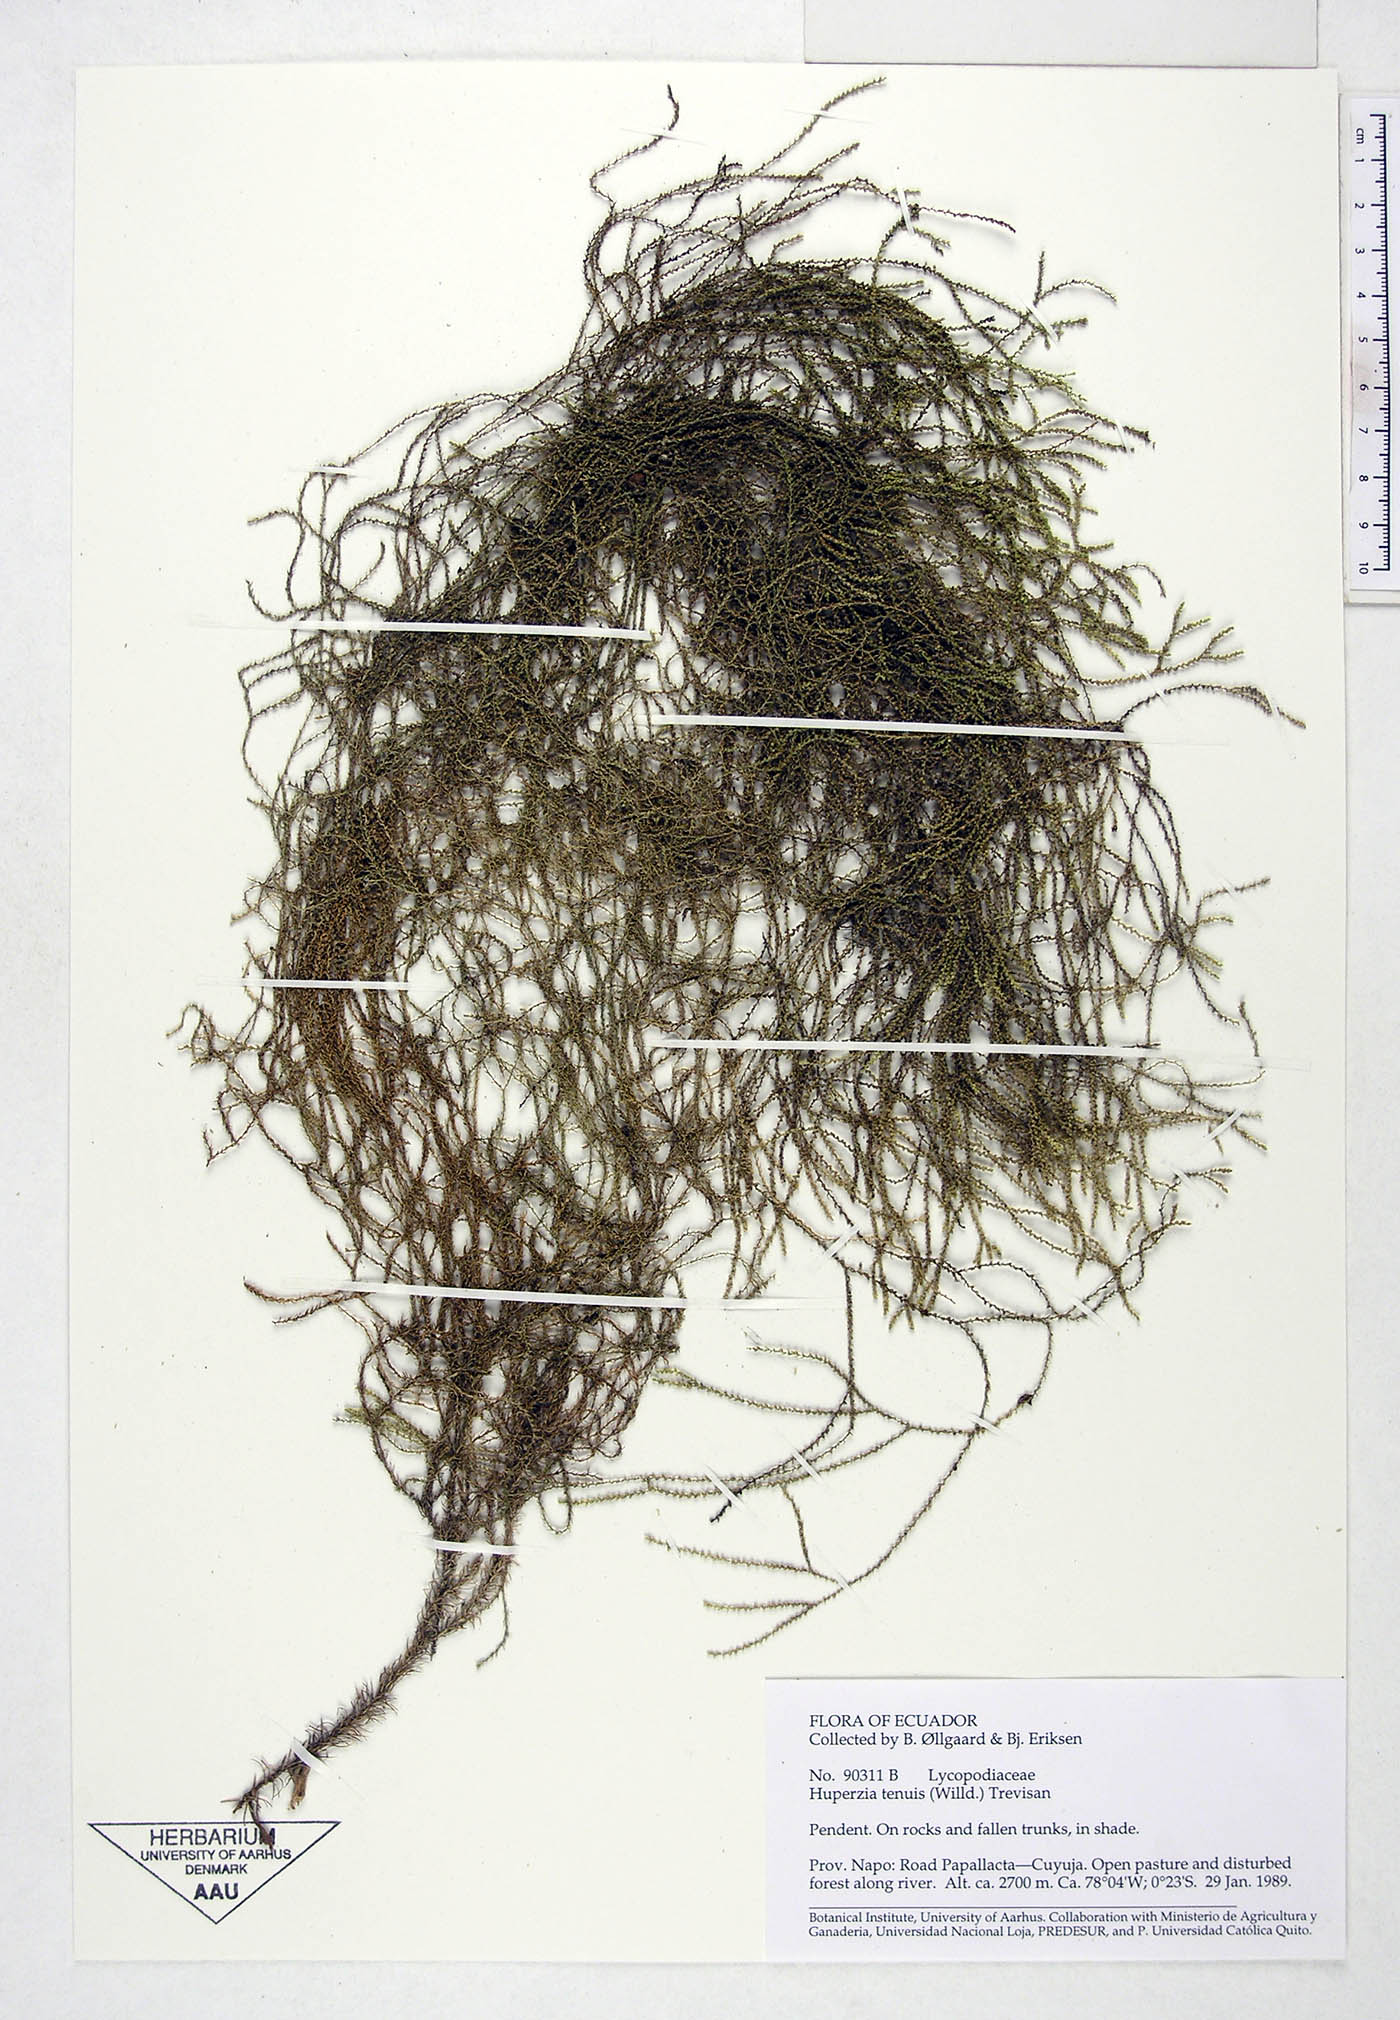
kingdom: Plantae
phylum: Tracheophyta
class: Lycopodiopsida
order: Lycopodiales
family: Lycopodiaceae
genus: Phlegmariurus
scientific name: Phlegmariurus tenuis
